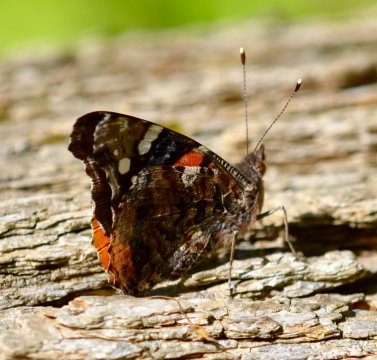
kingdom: Animalia
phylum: Arthropoda
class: Insecta
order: Lepidoptera
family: Nymphalidae
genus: Vanessa
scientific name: Vanessa atalanta
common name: Red Admiral
